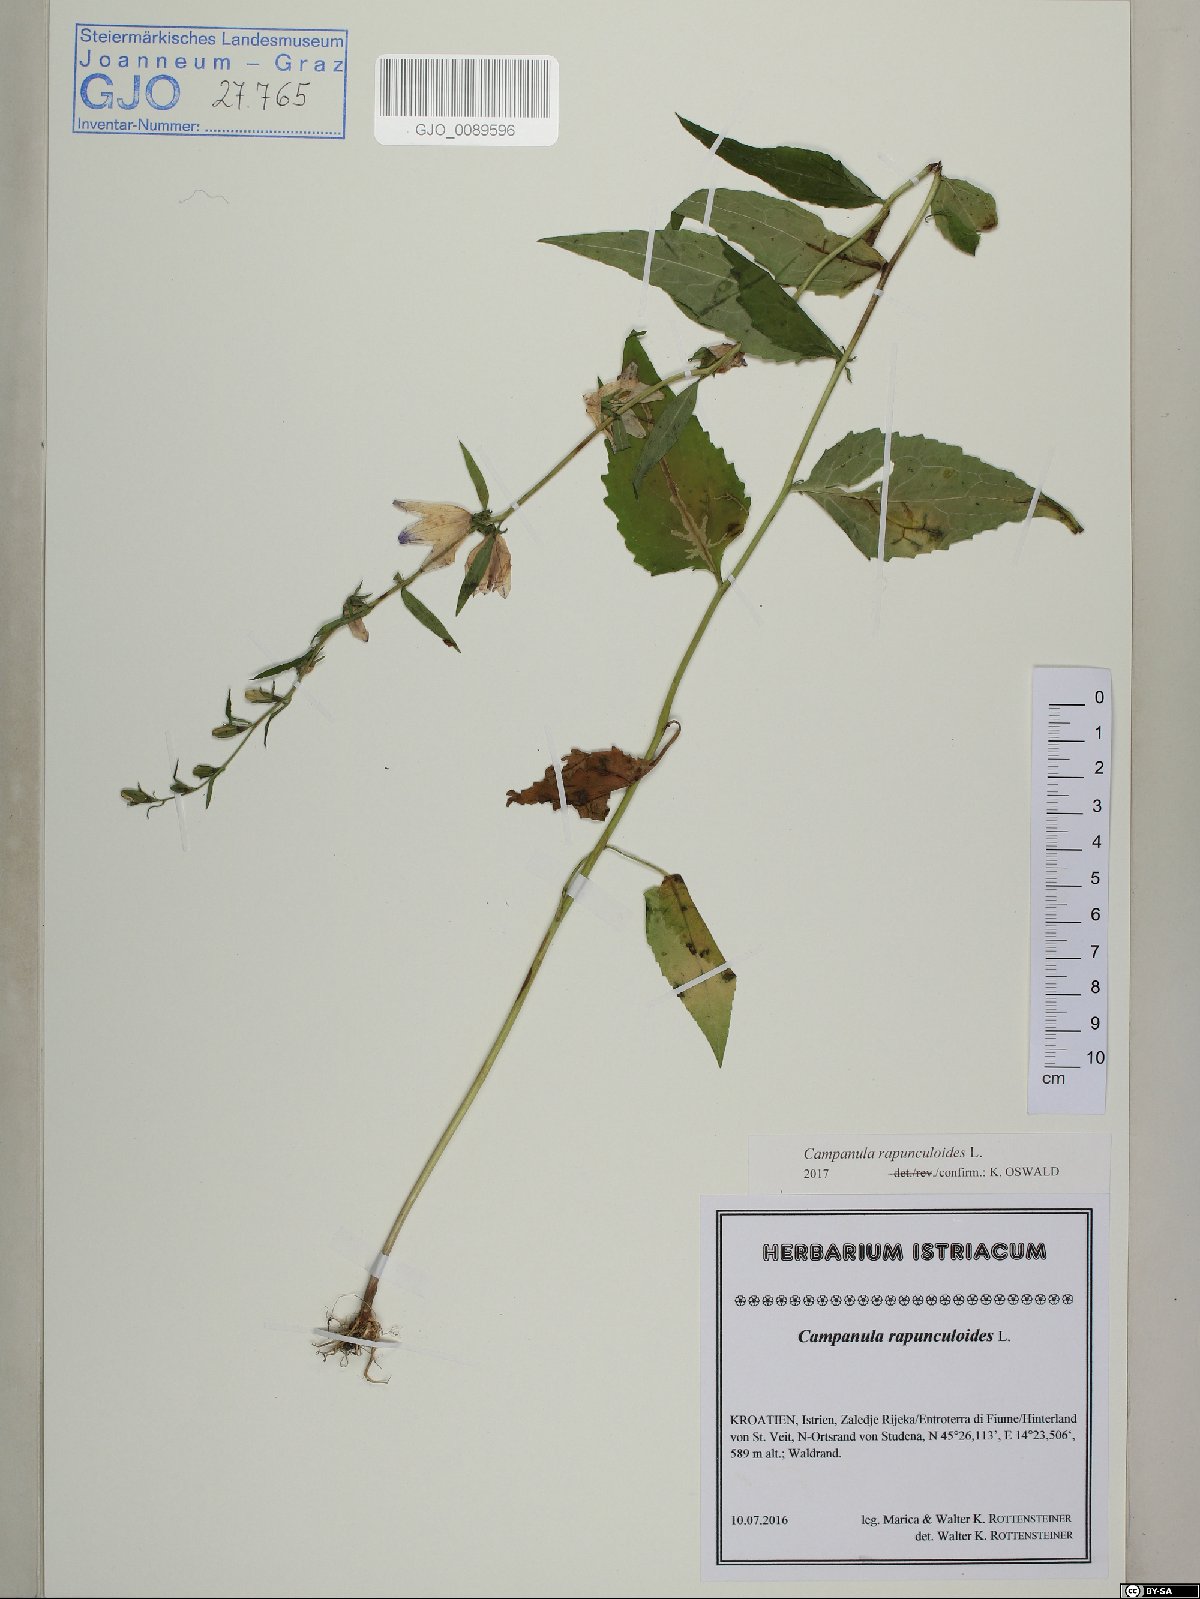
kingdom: Plantae
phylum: Tracheophyta
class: Magnoliopsida
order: Asterales
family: Campanulaceae
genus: Campanula
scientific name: Campanula rapunculoides
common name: Creeping bellflower
